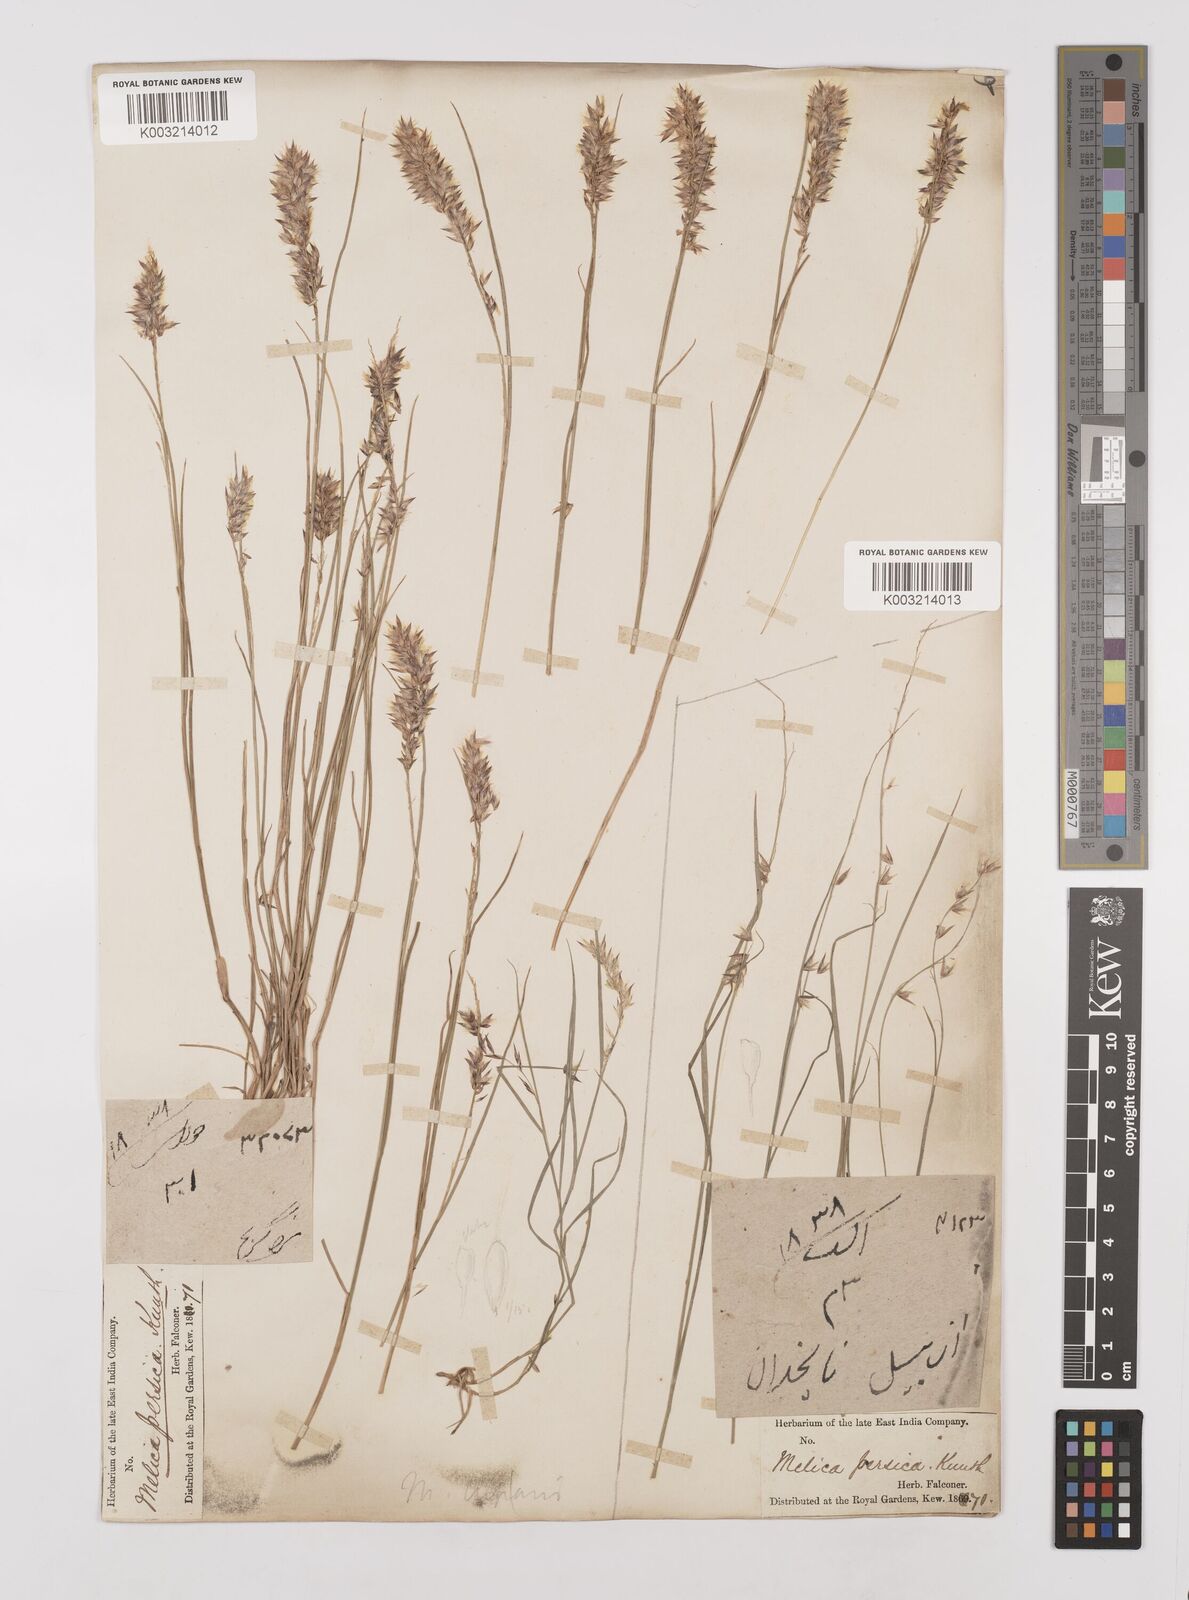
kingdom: Plantae
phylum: Tracheophyta
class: Liliopsida
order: Poales
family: Poaceae
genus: Melica
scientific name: Melica persica
